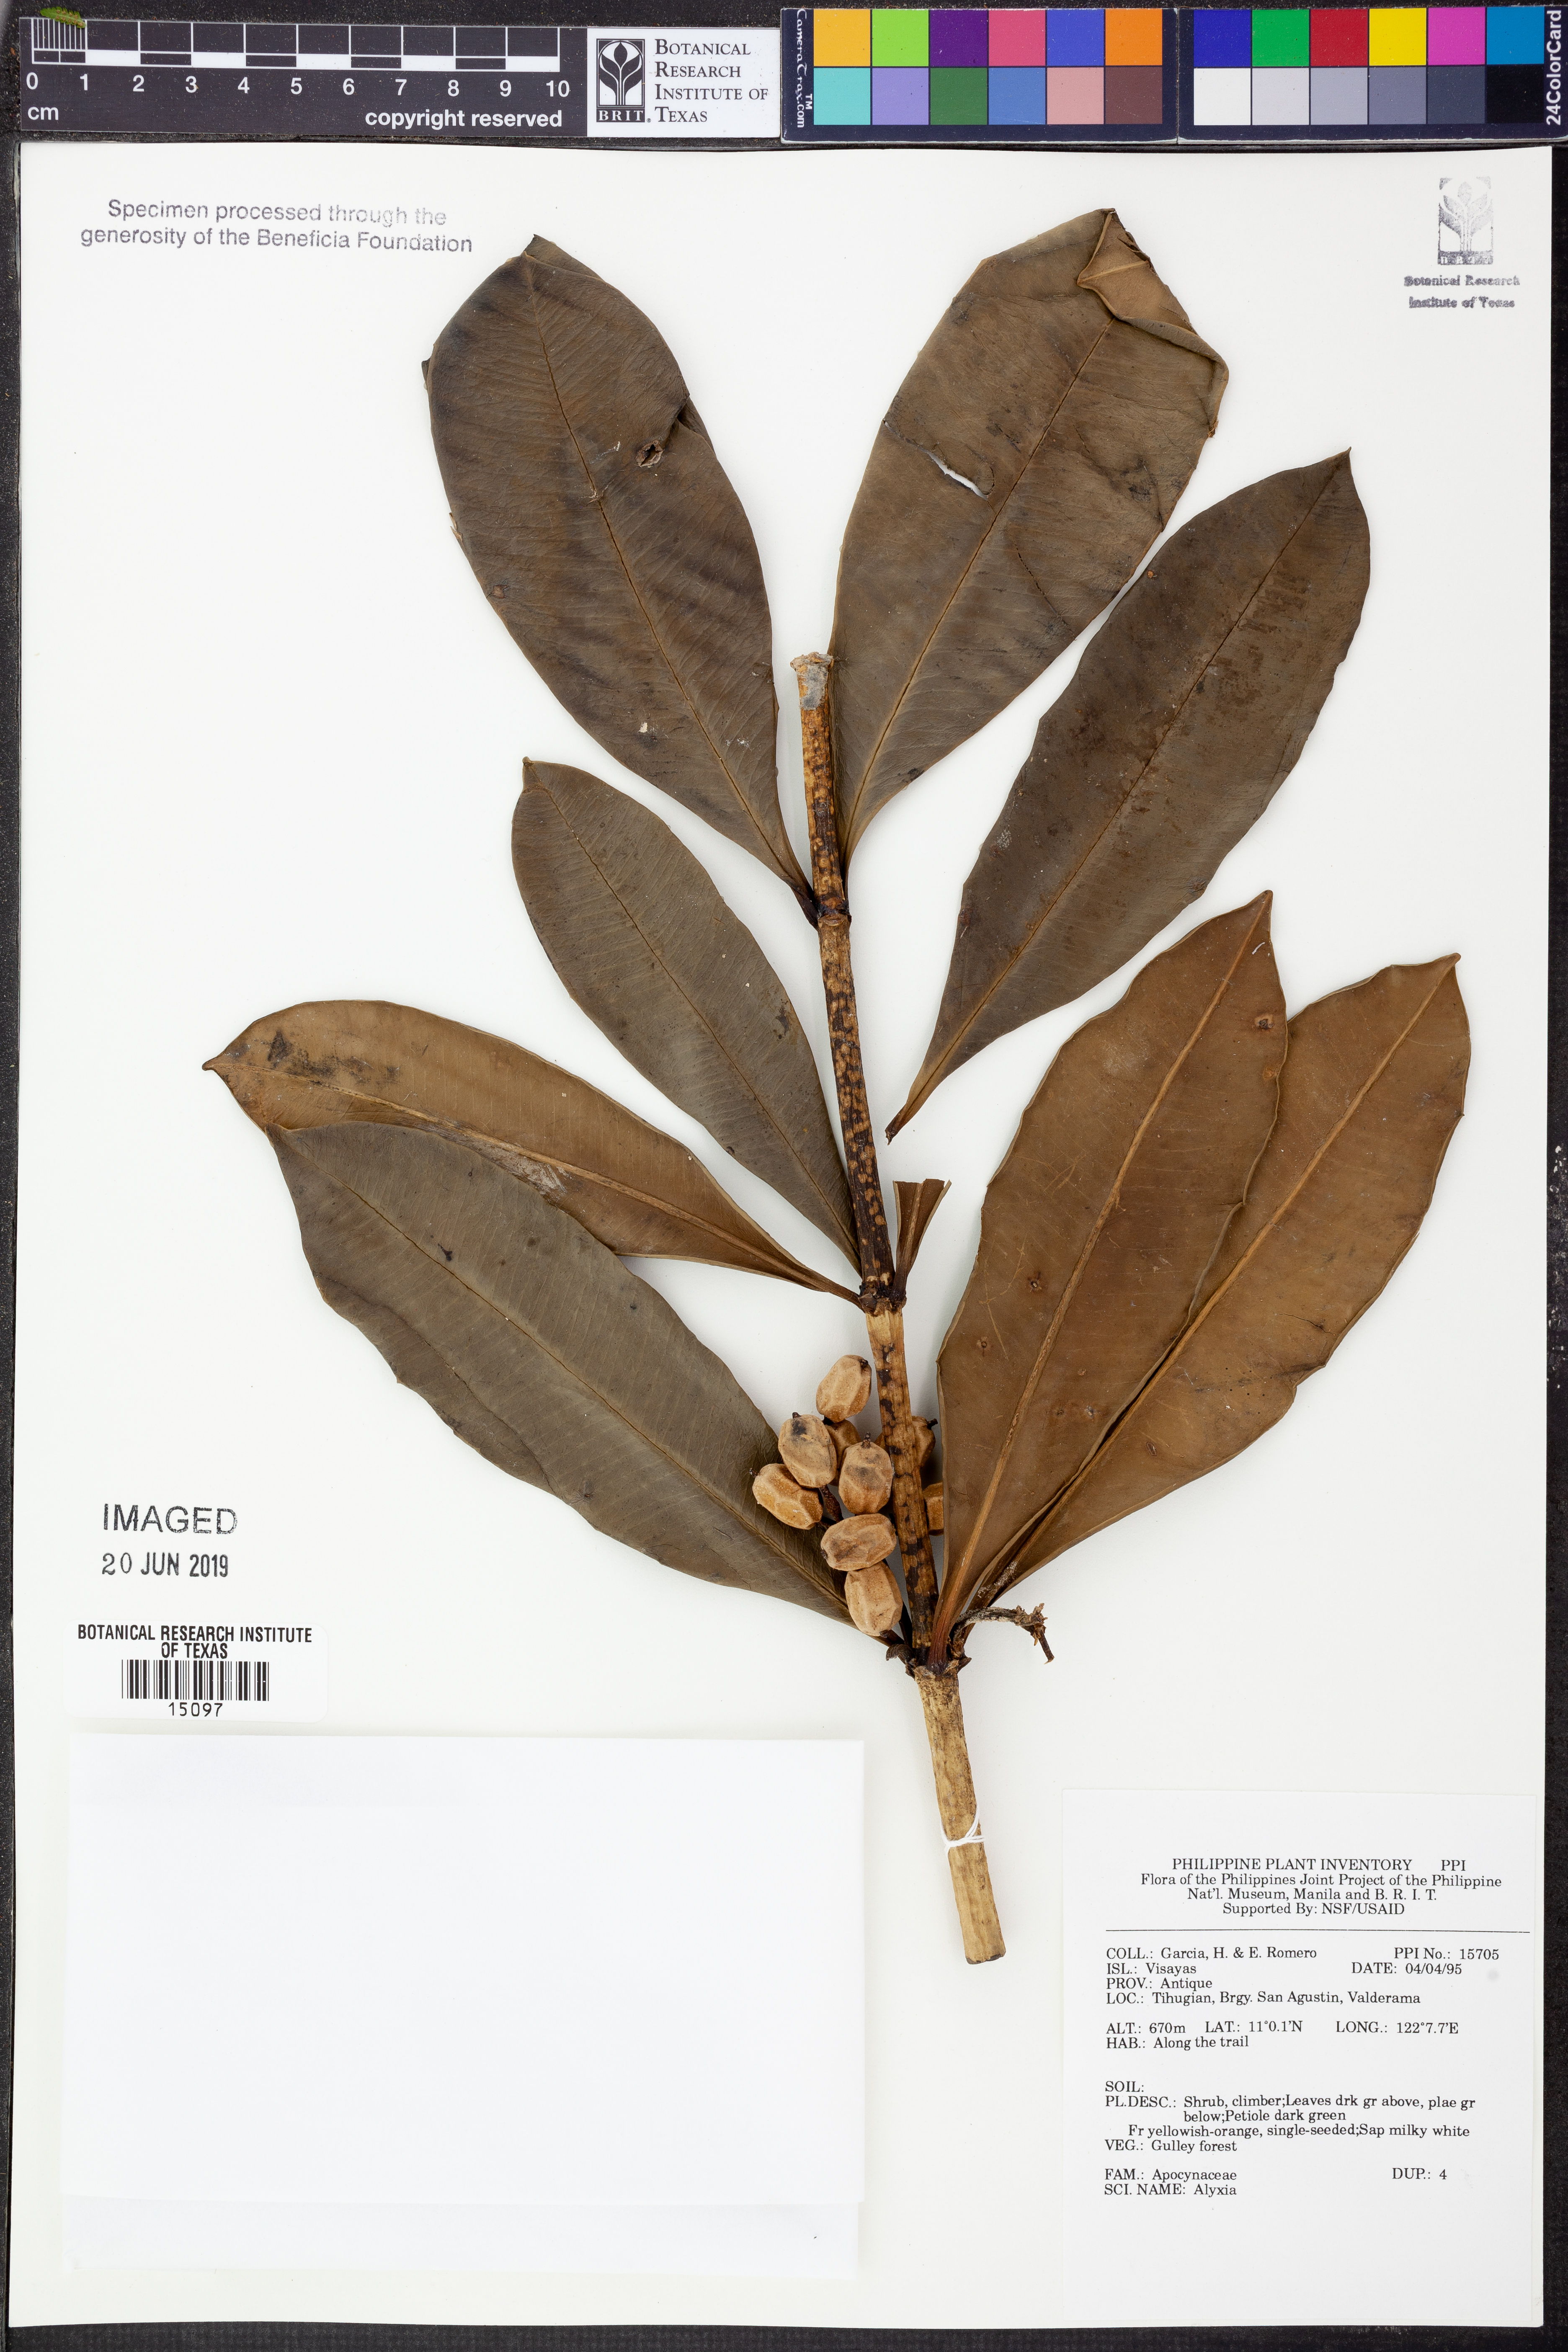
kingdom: Plantae
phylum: Tracheophyta
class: Magnoliopsida
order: Gentianales
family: Apocynaceae
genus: Alyxia
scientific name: Alyxia
